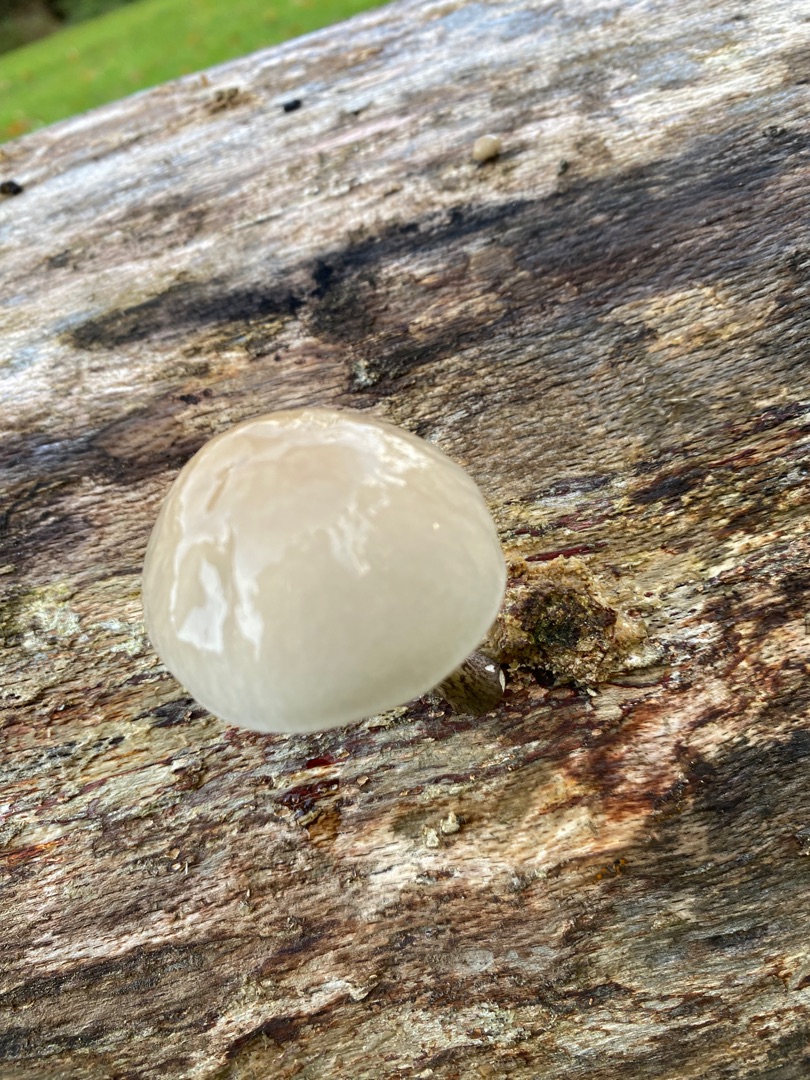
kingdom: Fungi
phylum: Basidiomycota
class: Agaricomycetes
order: Agaricales
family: Physalacriaceae
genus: Mucidula
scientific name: Mucidula mucida
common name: Porcelænshat
